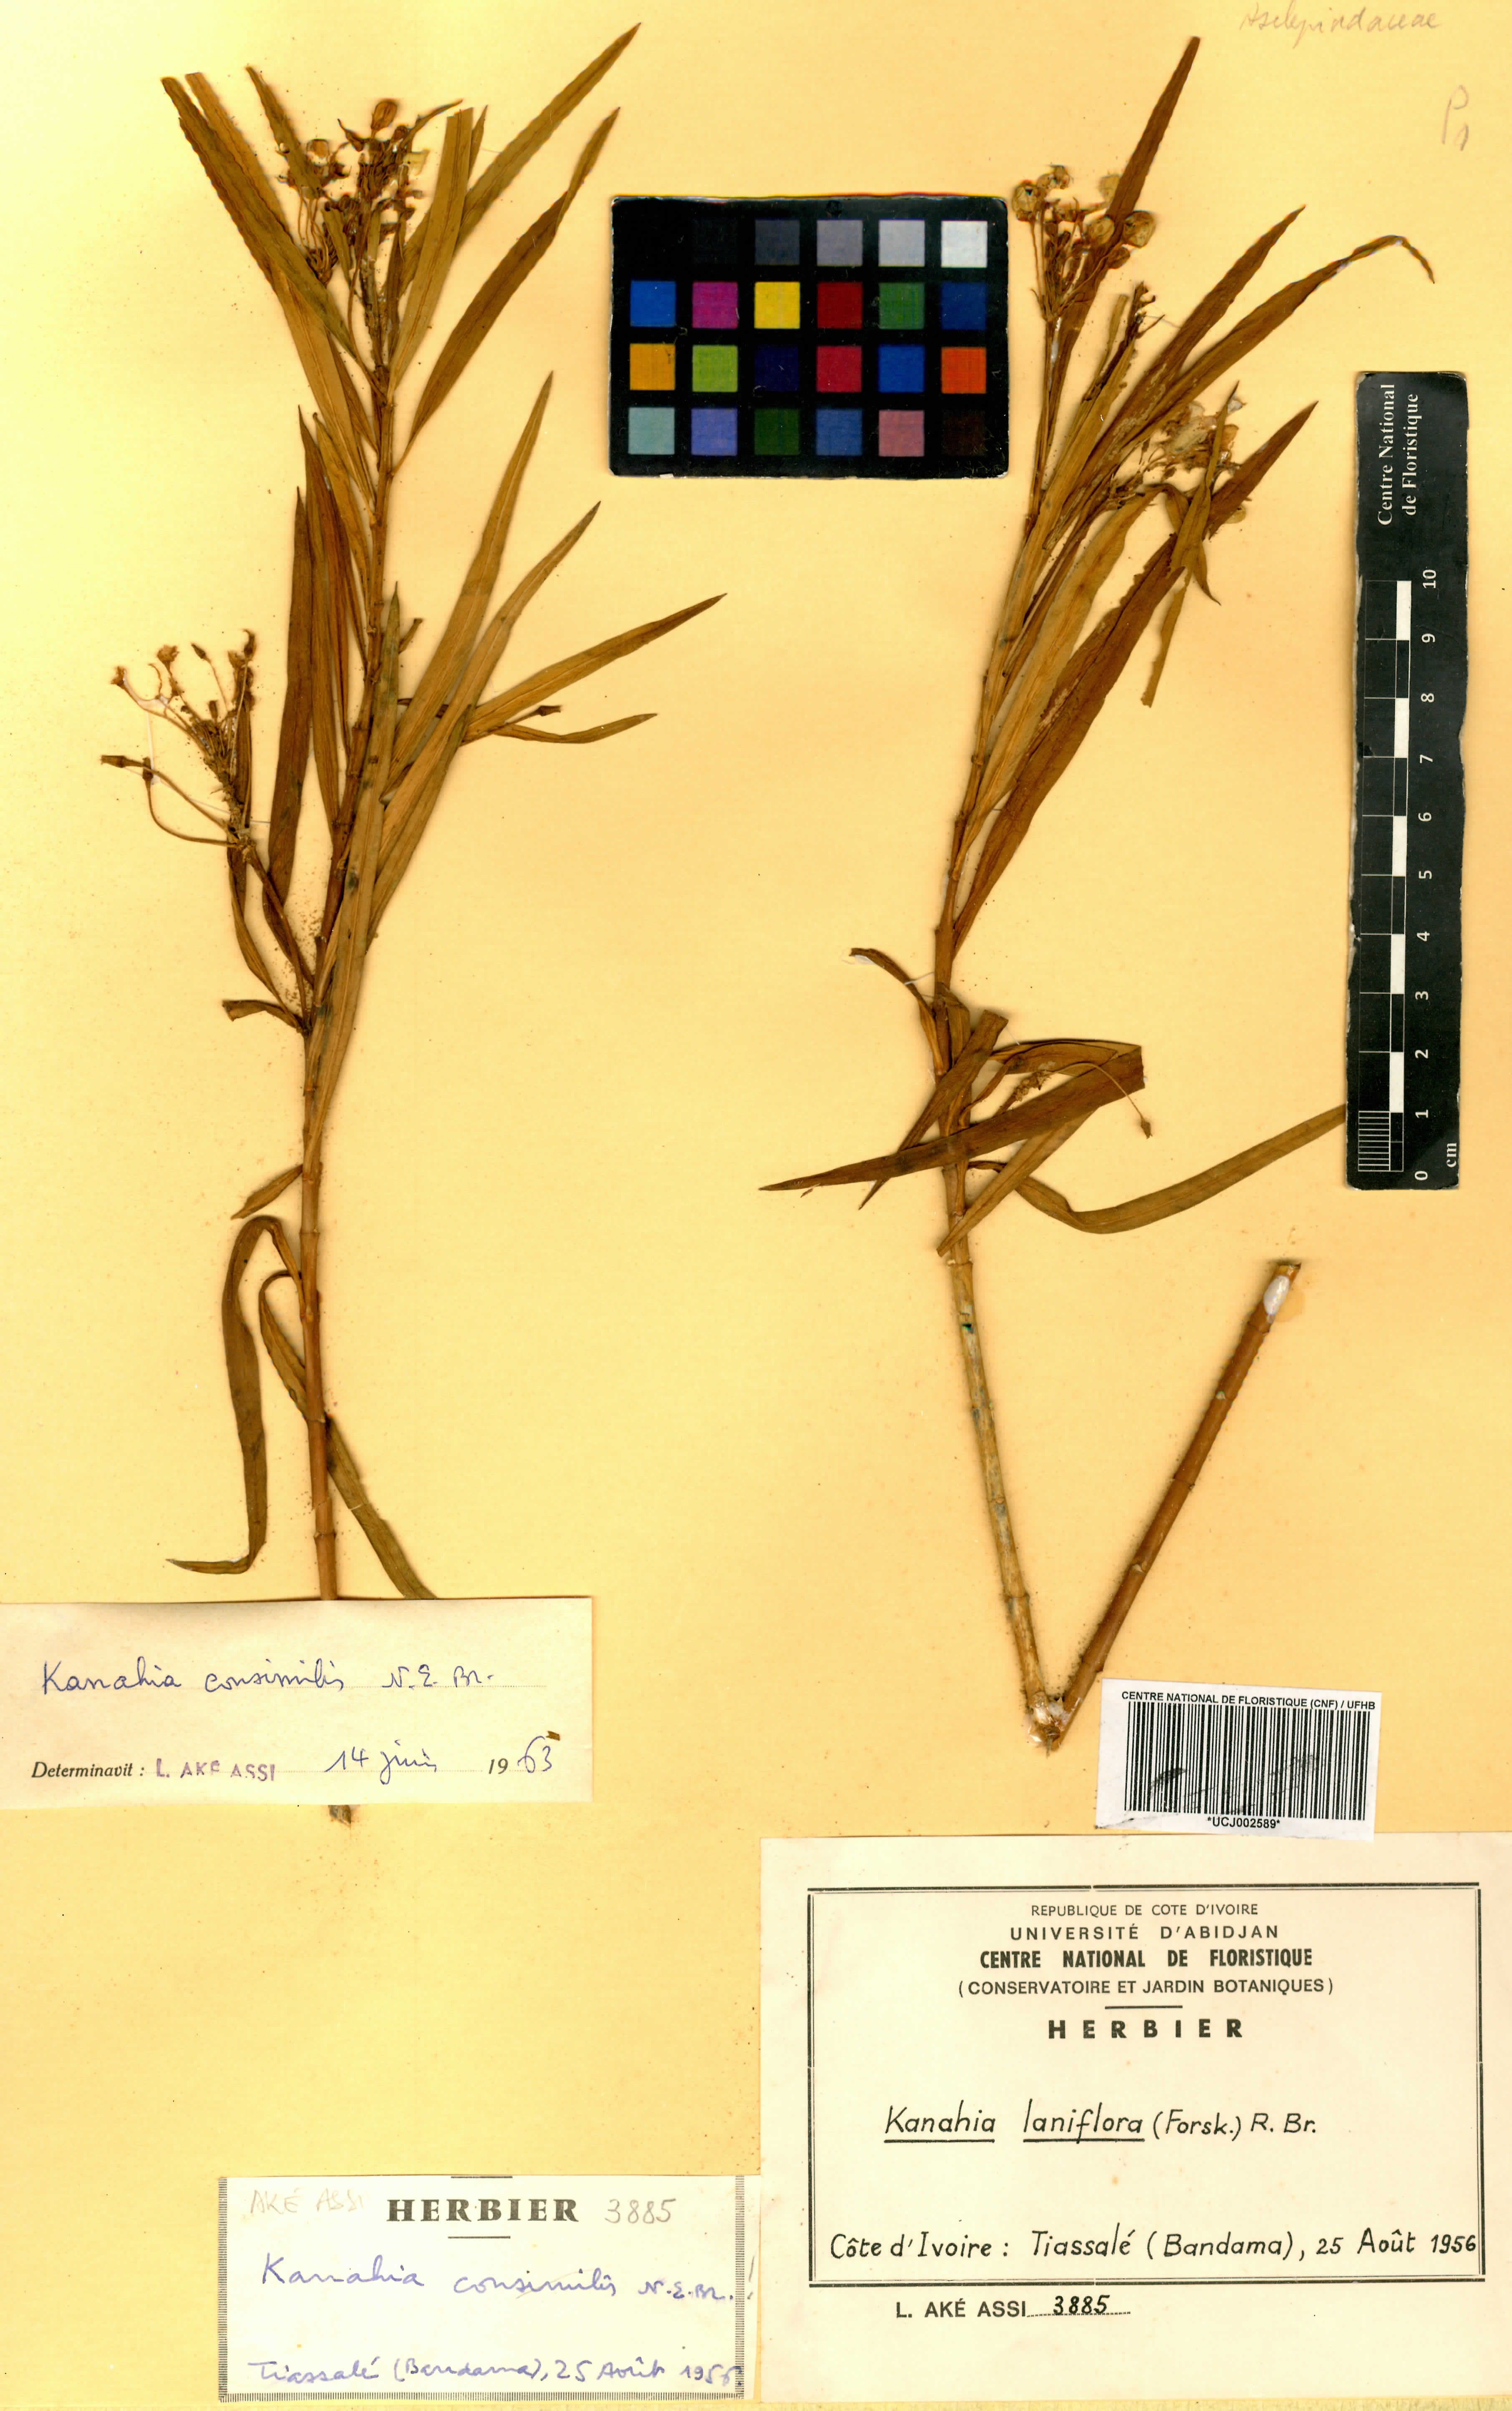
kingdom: Plantae
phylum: Tracheophyta
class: Magnoliopsida
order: Gentianales
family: Apocynaceae
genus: Kanahia
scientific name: Kanahia laniflora
